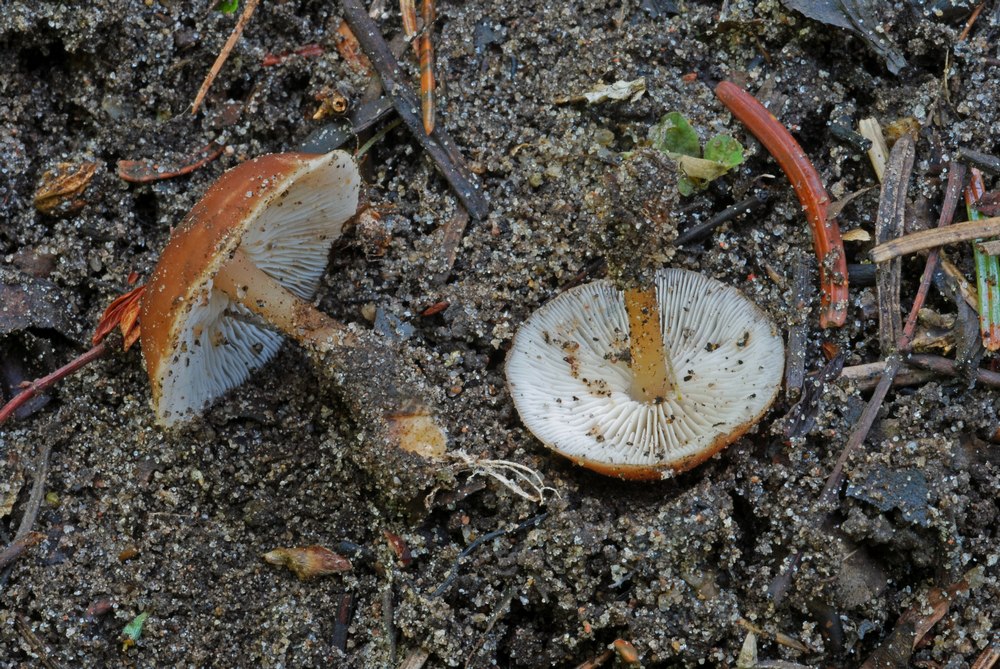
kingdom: Fungi
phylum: Basidiomycota
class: Agaricomycetes
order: Agaricales
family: Omphalotaceae
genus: Gymnopus
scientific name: Gymnopus ocior
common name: mørk fladhat
